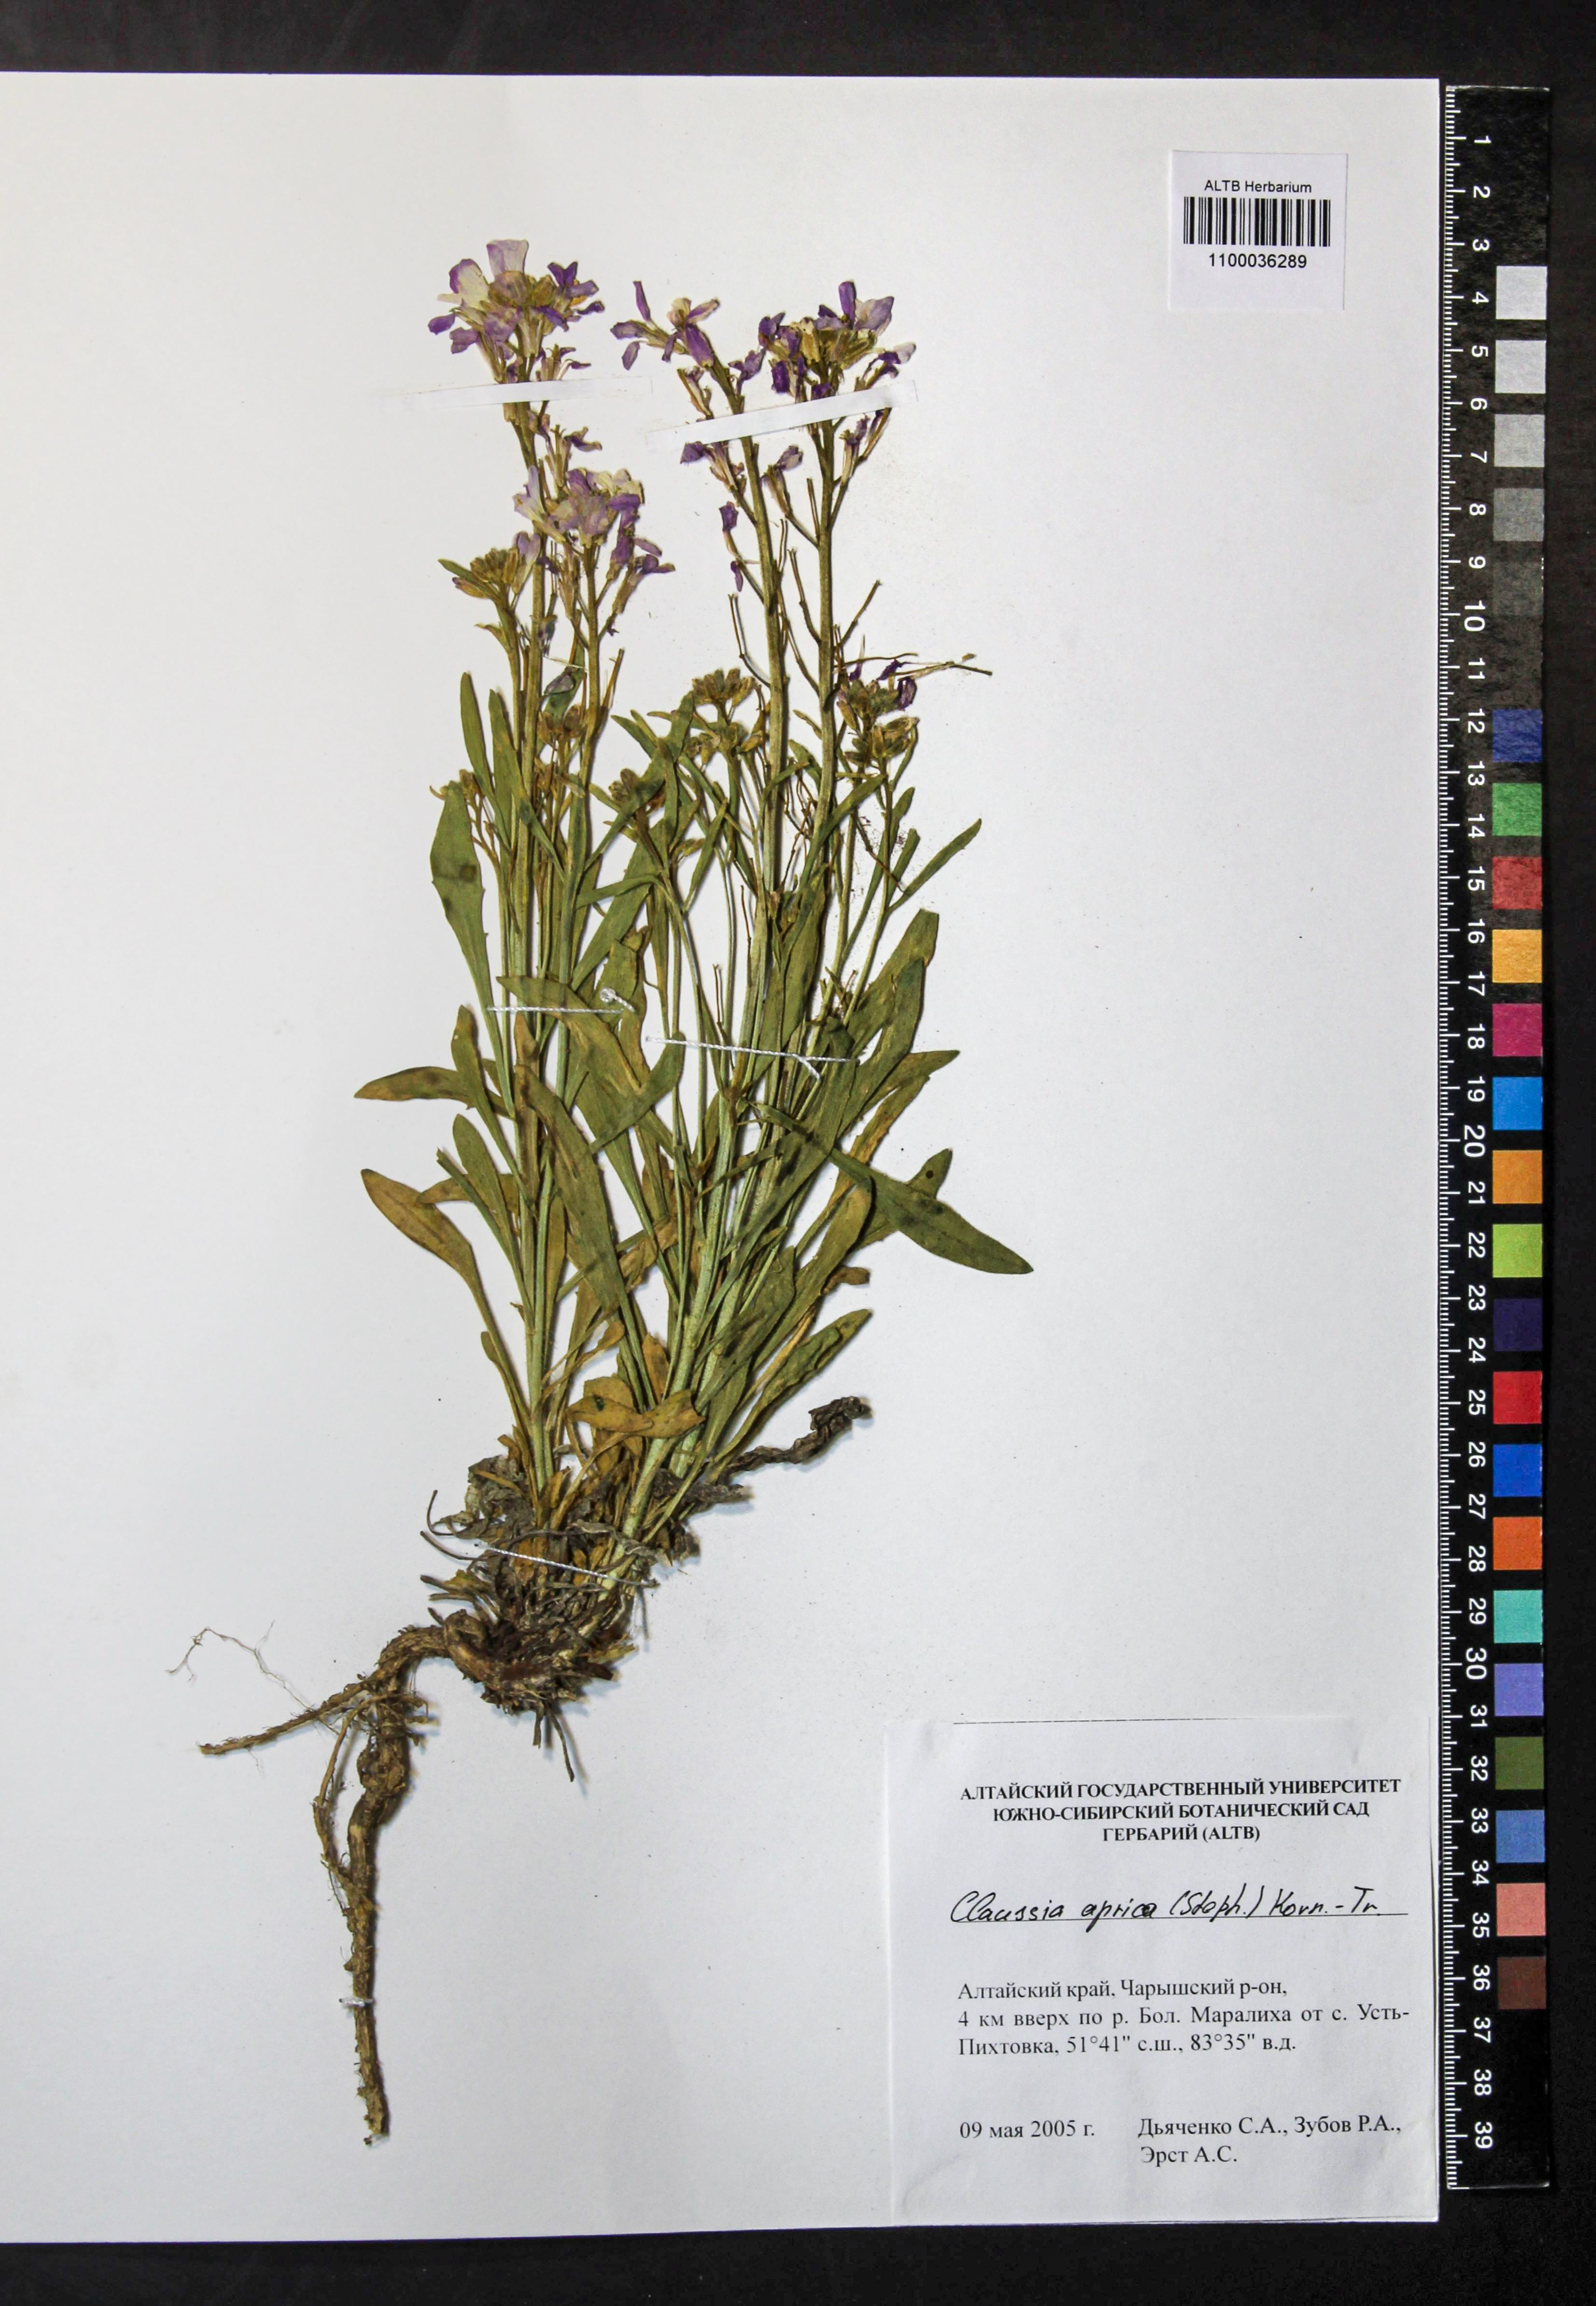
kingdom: Plantae
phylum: Tracheophyta
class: Magnoliopsida
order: Brassicales
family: Brassicaceae
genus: Clausia
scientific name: Clausia aprica
